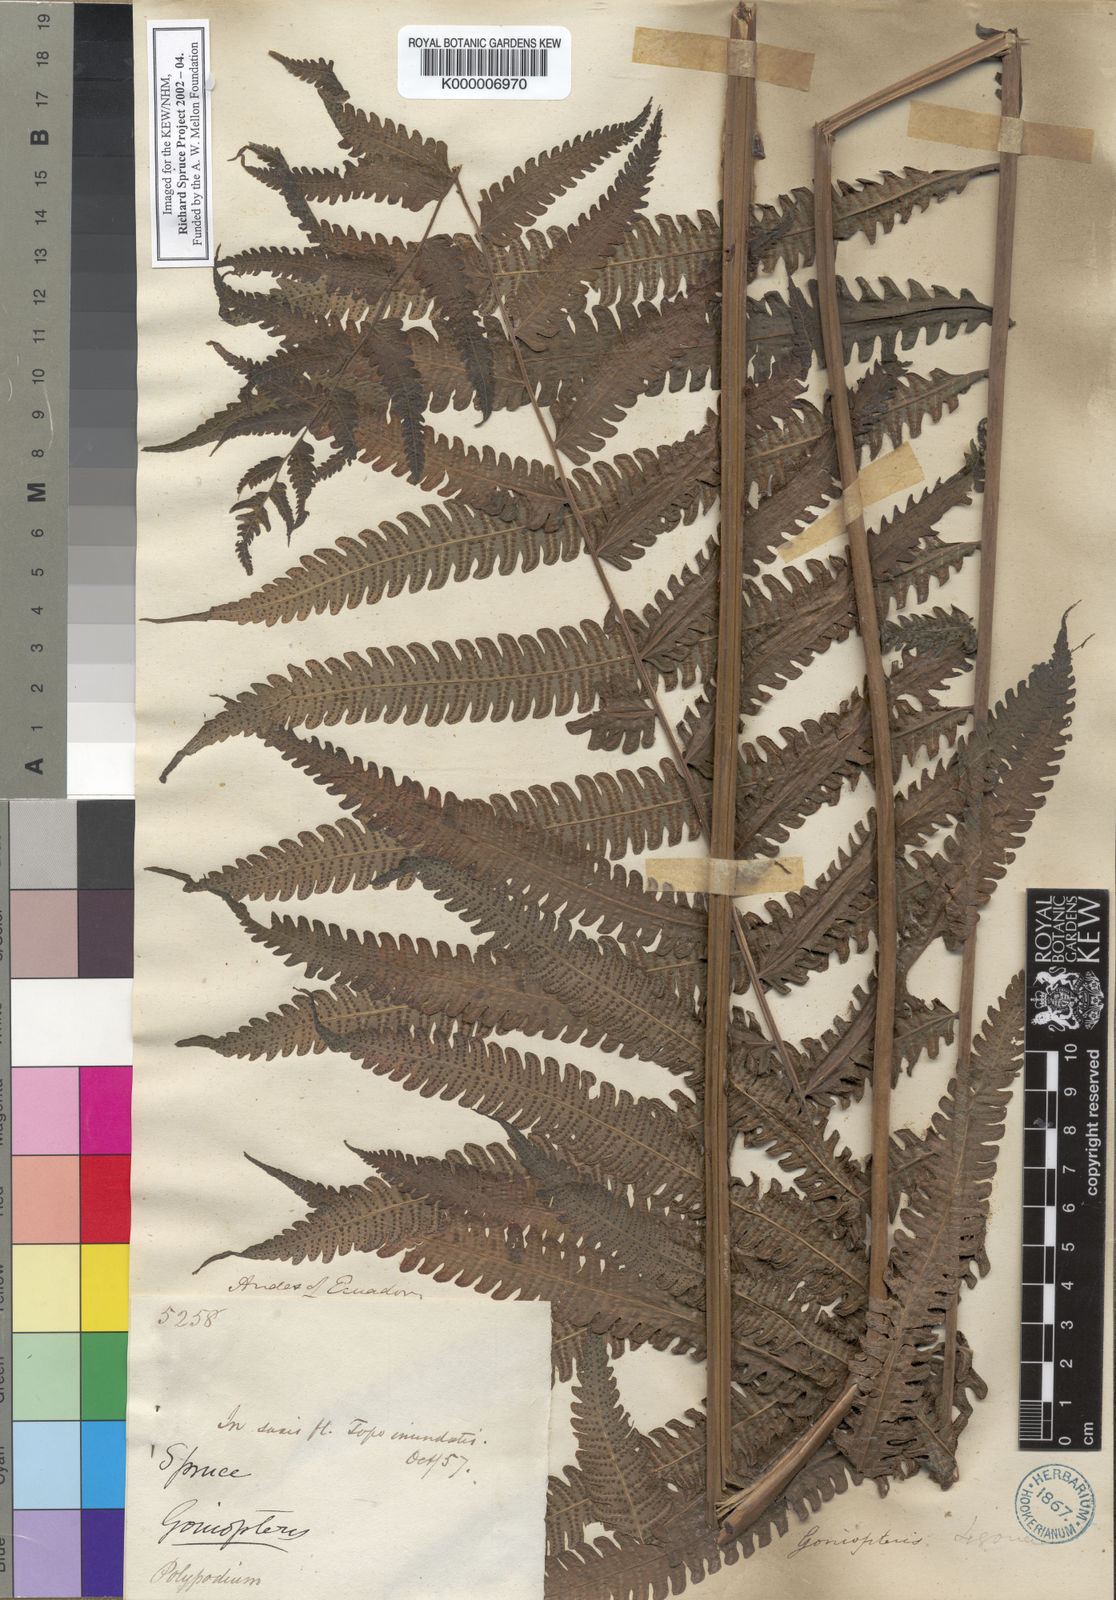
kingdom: Plantae
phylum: Tracheophyta
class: Polypodiopsida
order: Polypodiales
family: Thelypteridaceae
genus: Goniopteris
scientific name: Goniopteris tetragona
